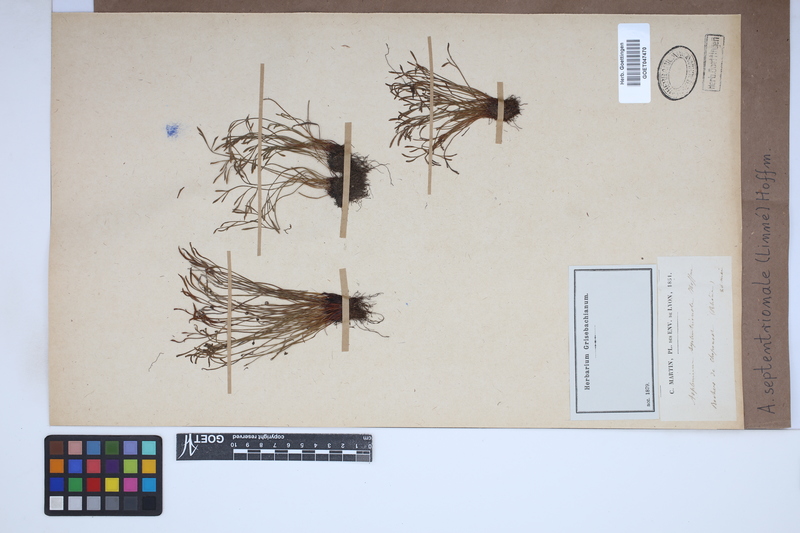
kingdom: Plantae
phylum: Tracheophyta
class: Polypodiopsida
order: Polypodiales
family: Aspleniaceae
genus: Asplenium
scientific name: Asplenium septentrionale
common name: Forked spleenwort
